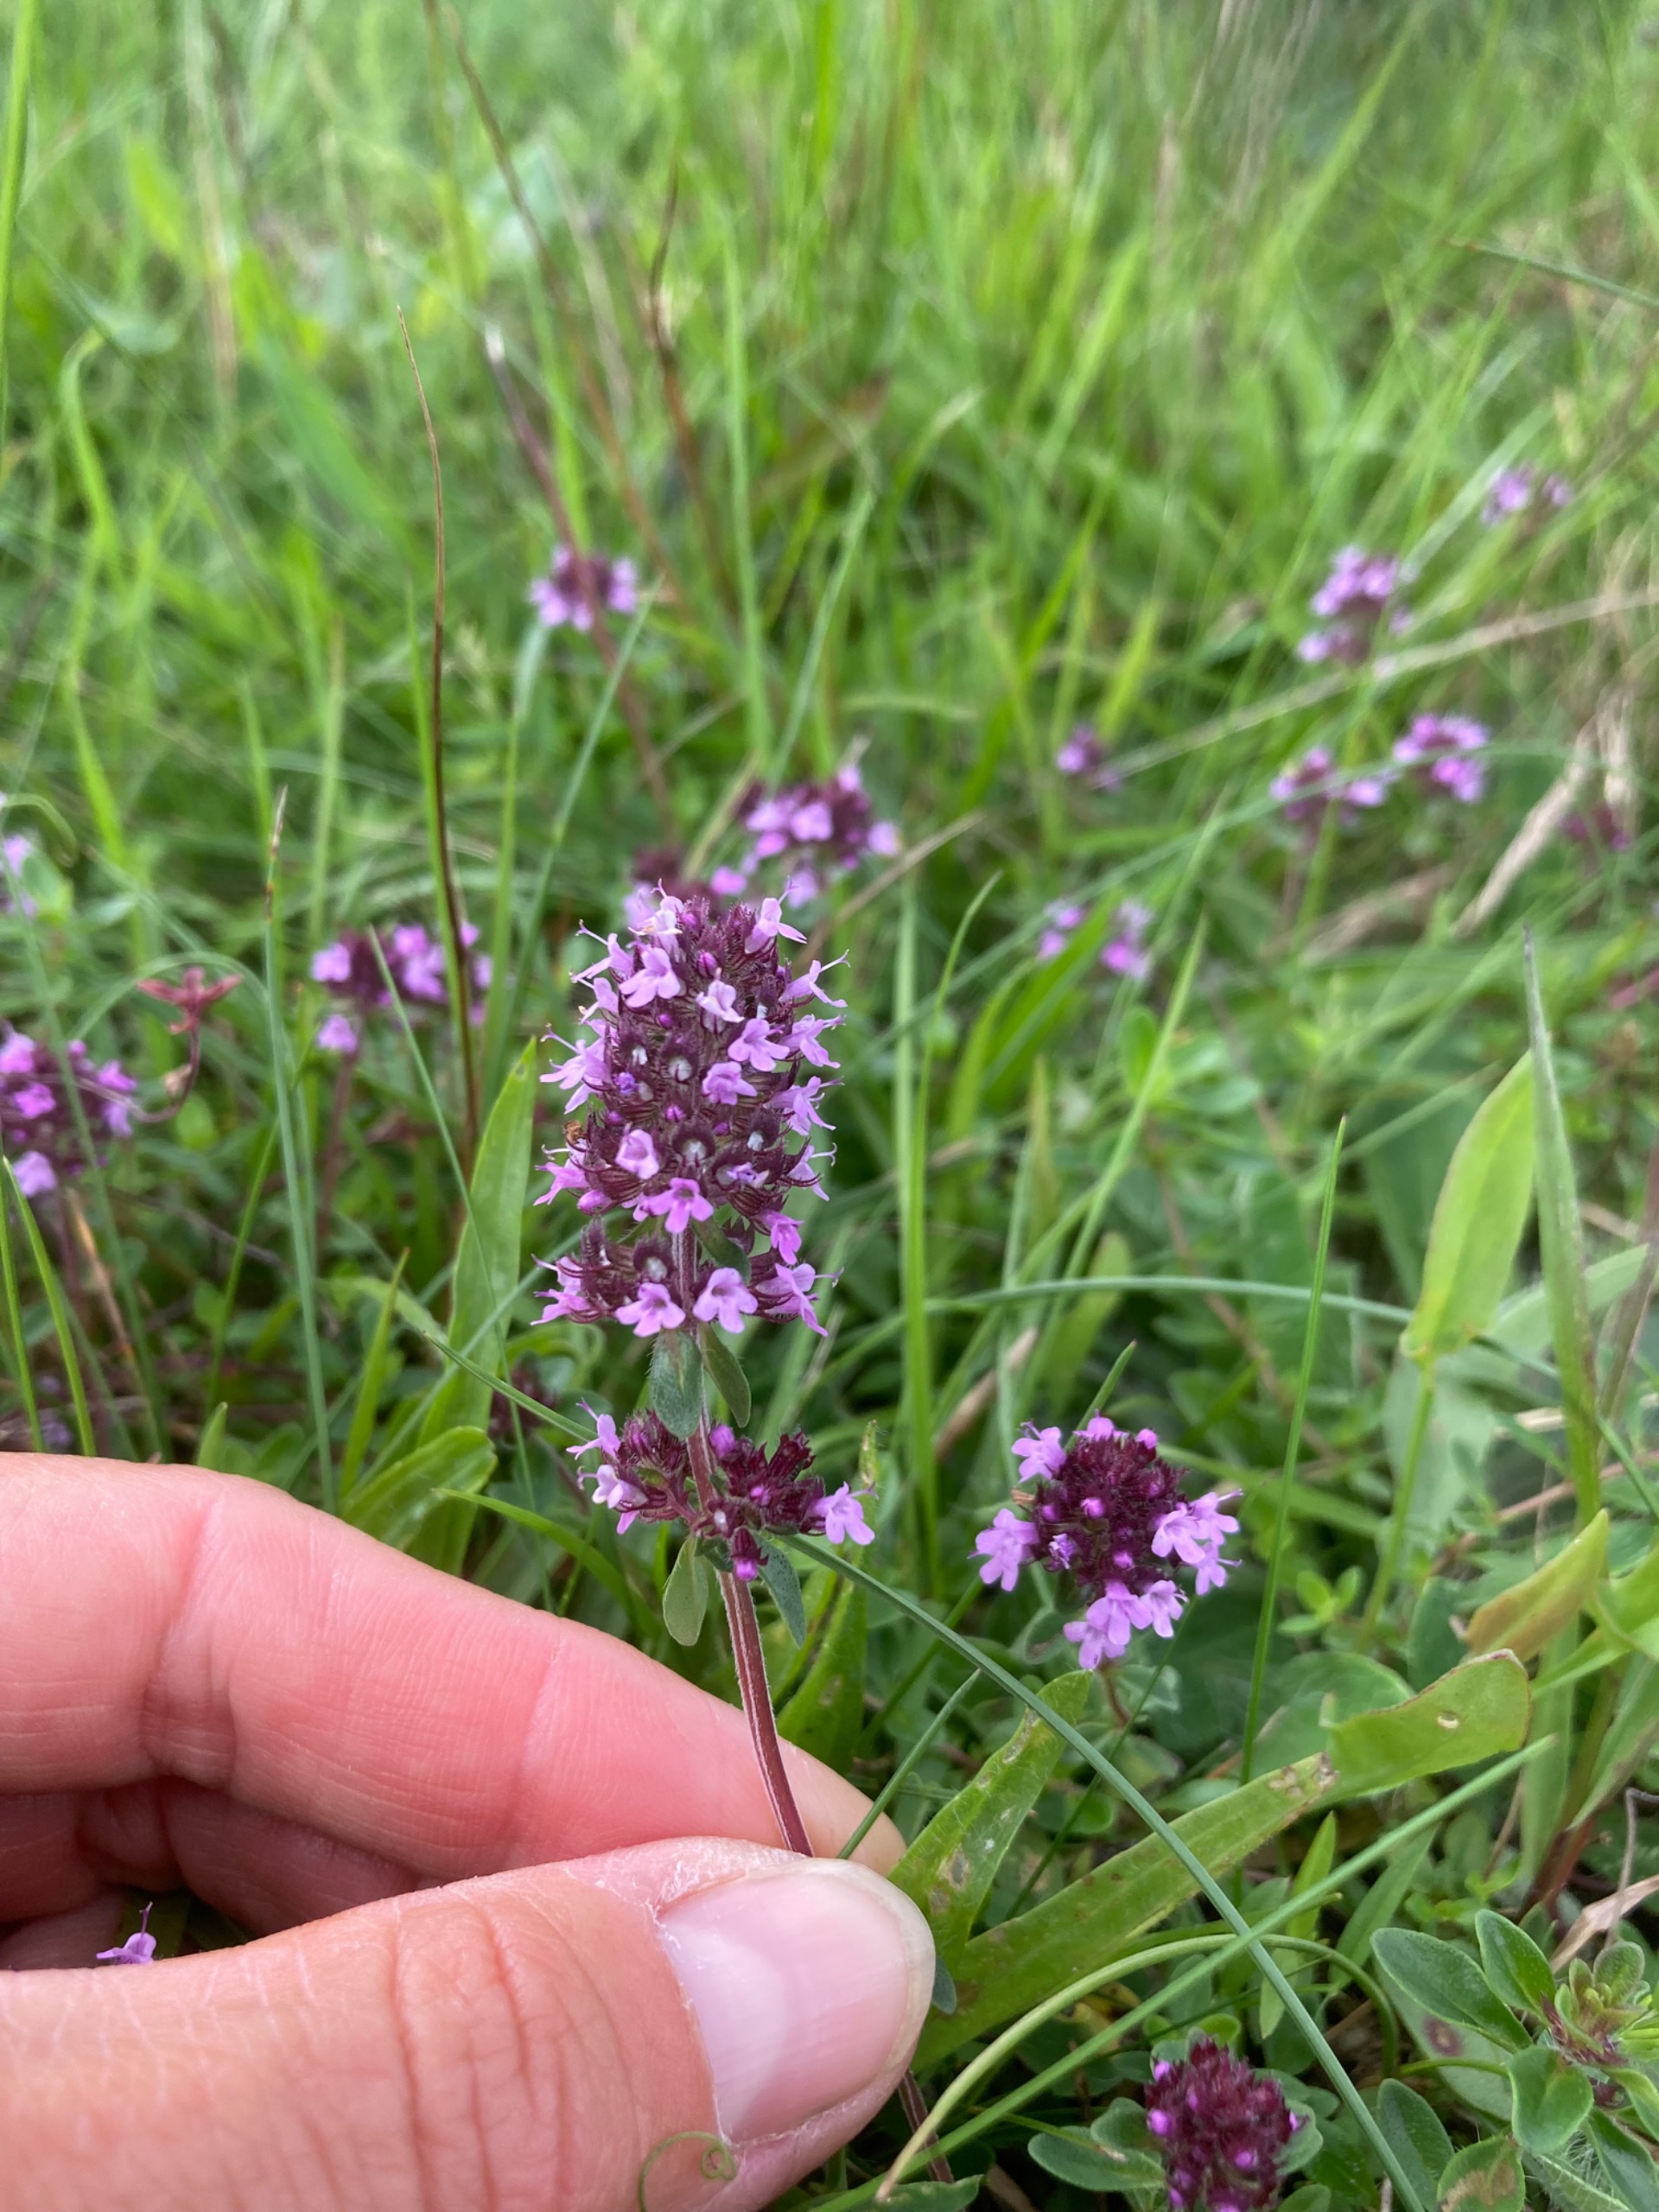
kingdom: Plantae
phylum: Tracheophyta
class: Magnoliopsida
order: Lamiales
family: Lamiaceae
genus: Thymus
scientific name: Thymus pulegioides
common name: Bredbladet timian
